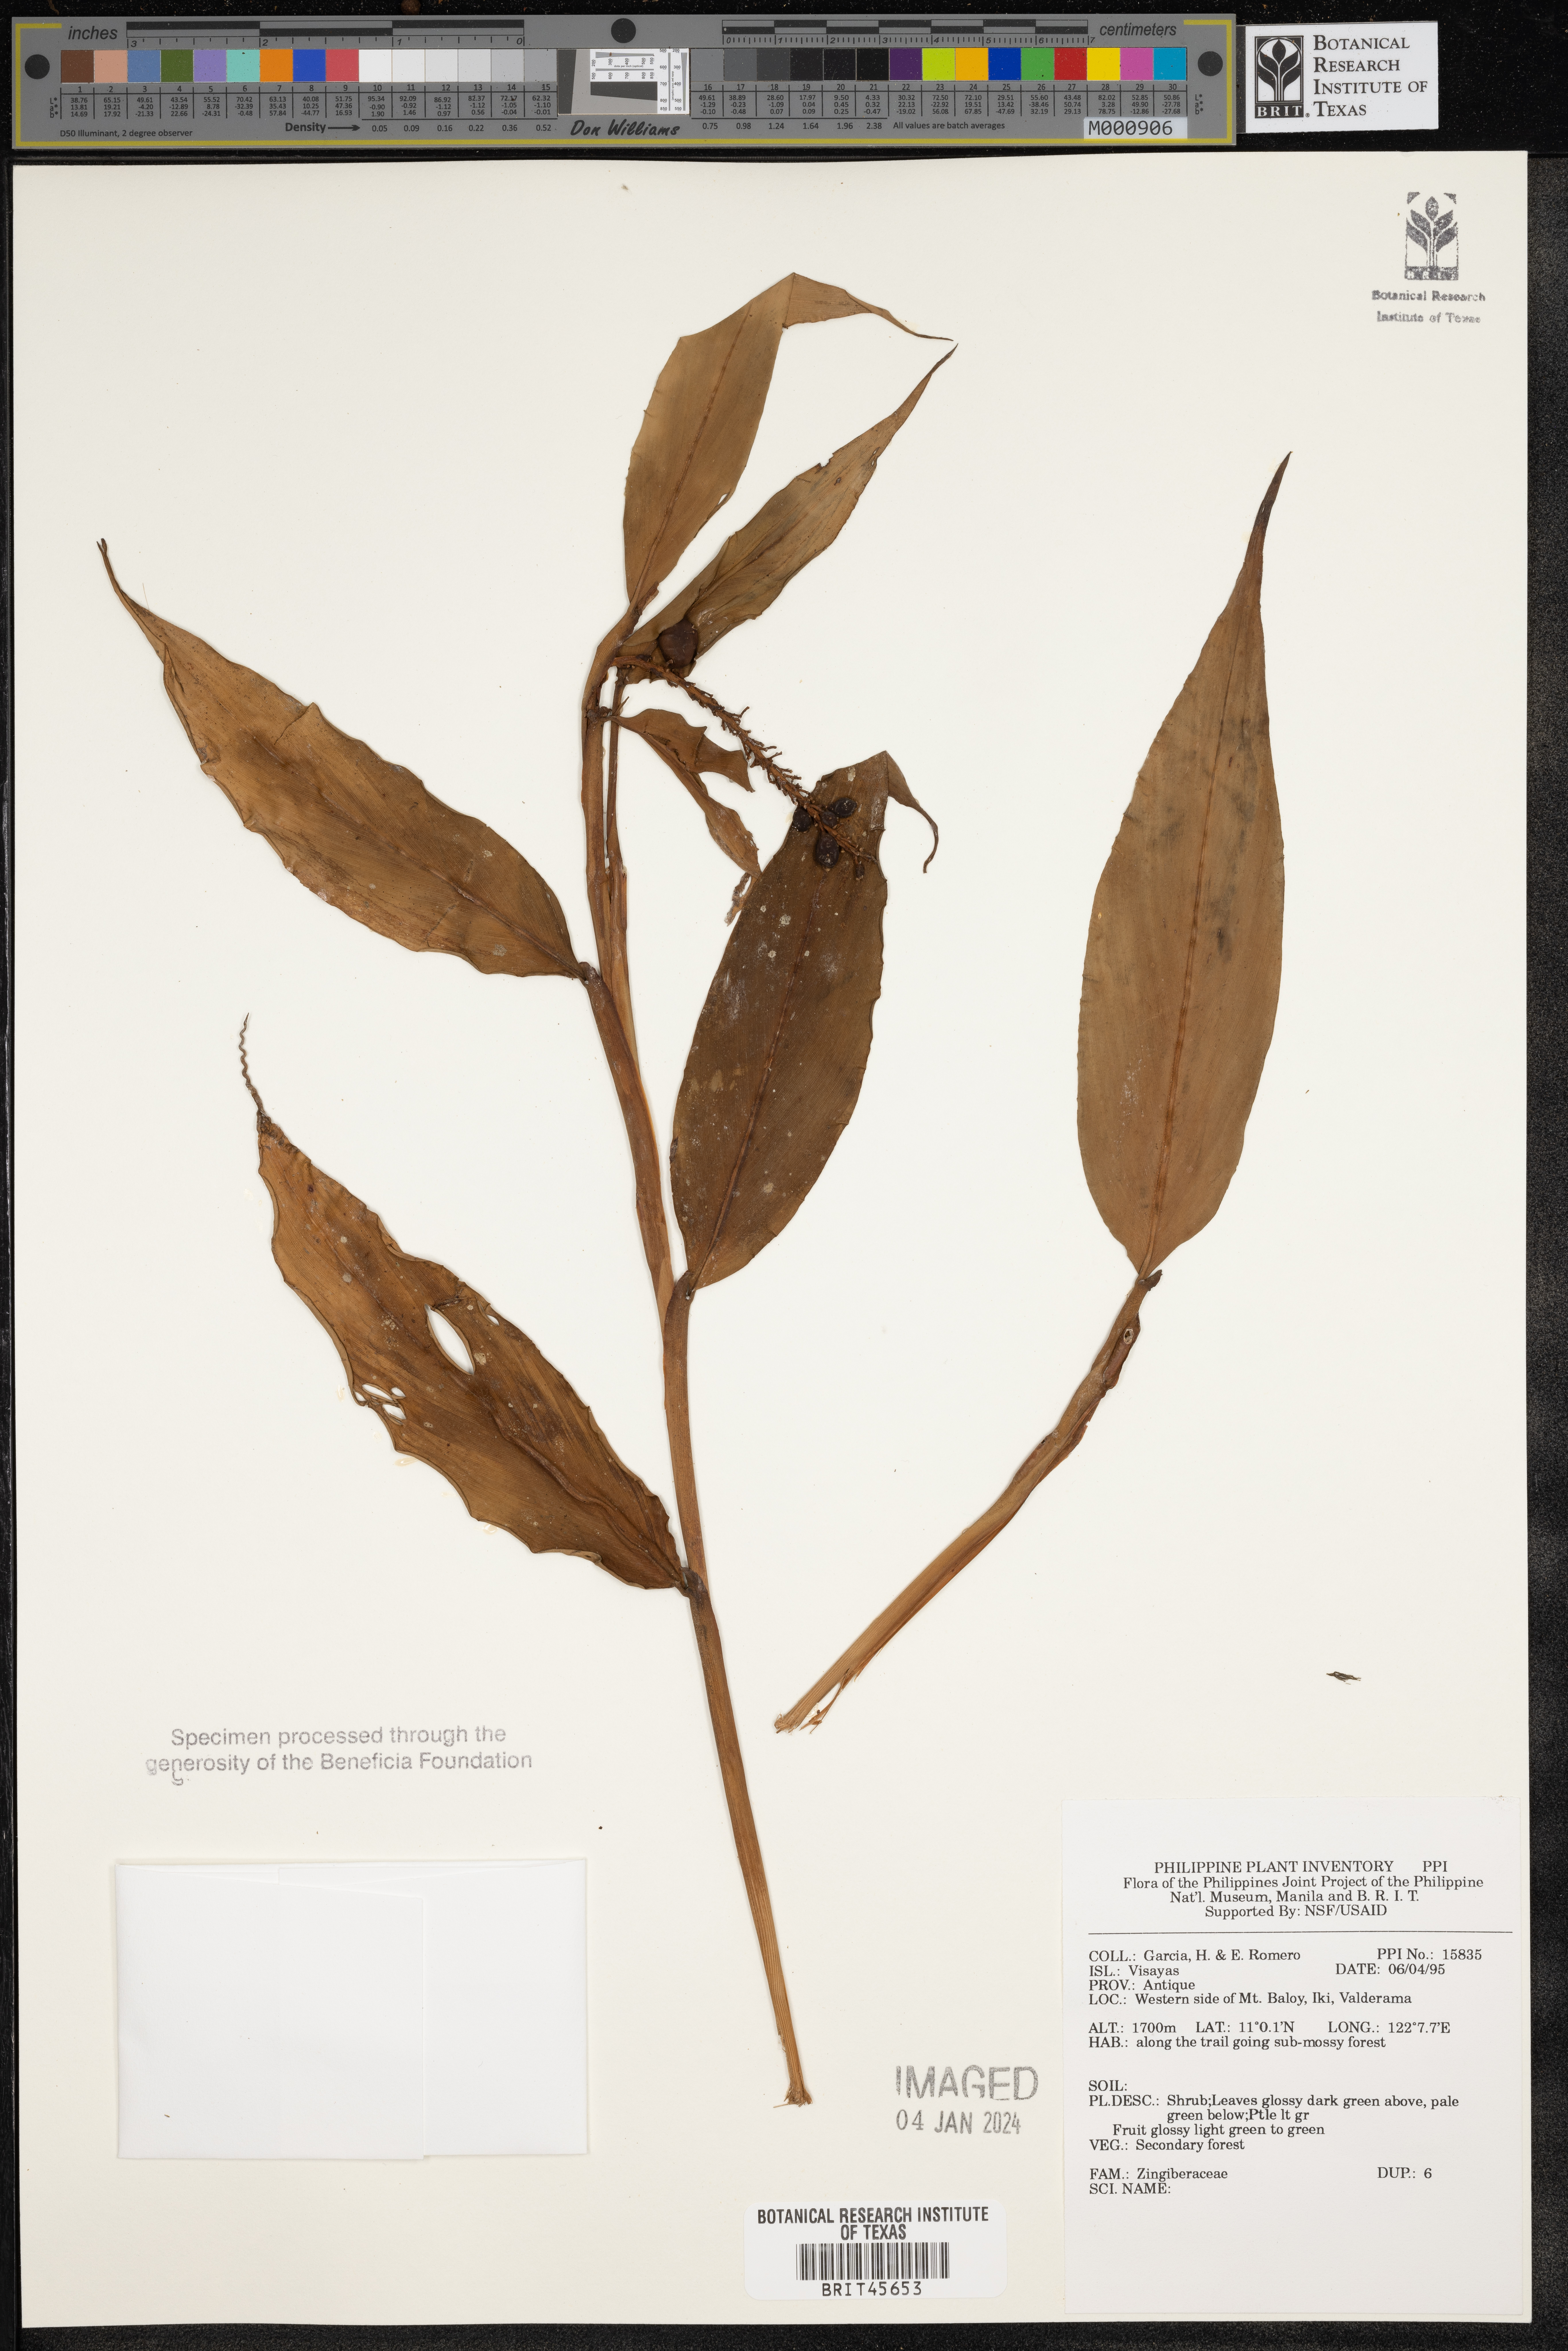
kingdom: Plantae
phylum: Tracheophyta
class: Liliopsida
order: Zingiberales
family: Zingiberaceae
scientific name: Zingiberaceae
